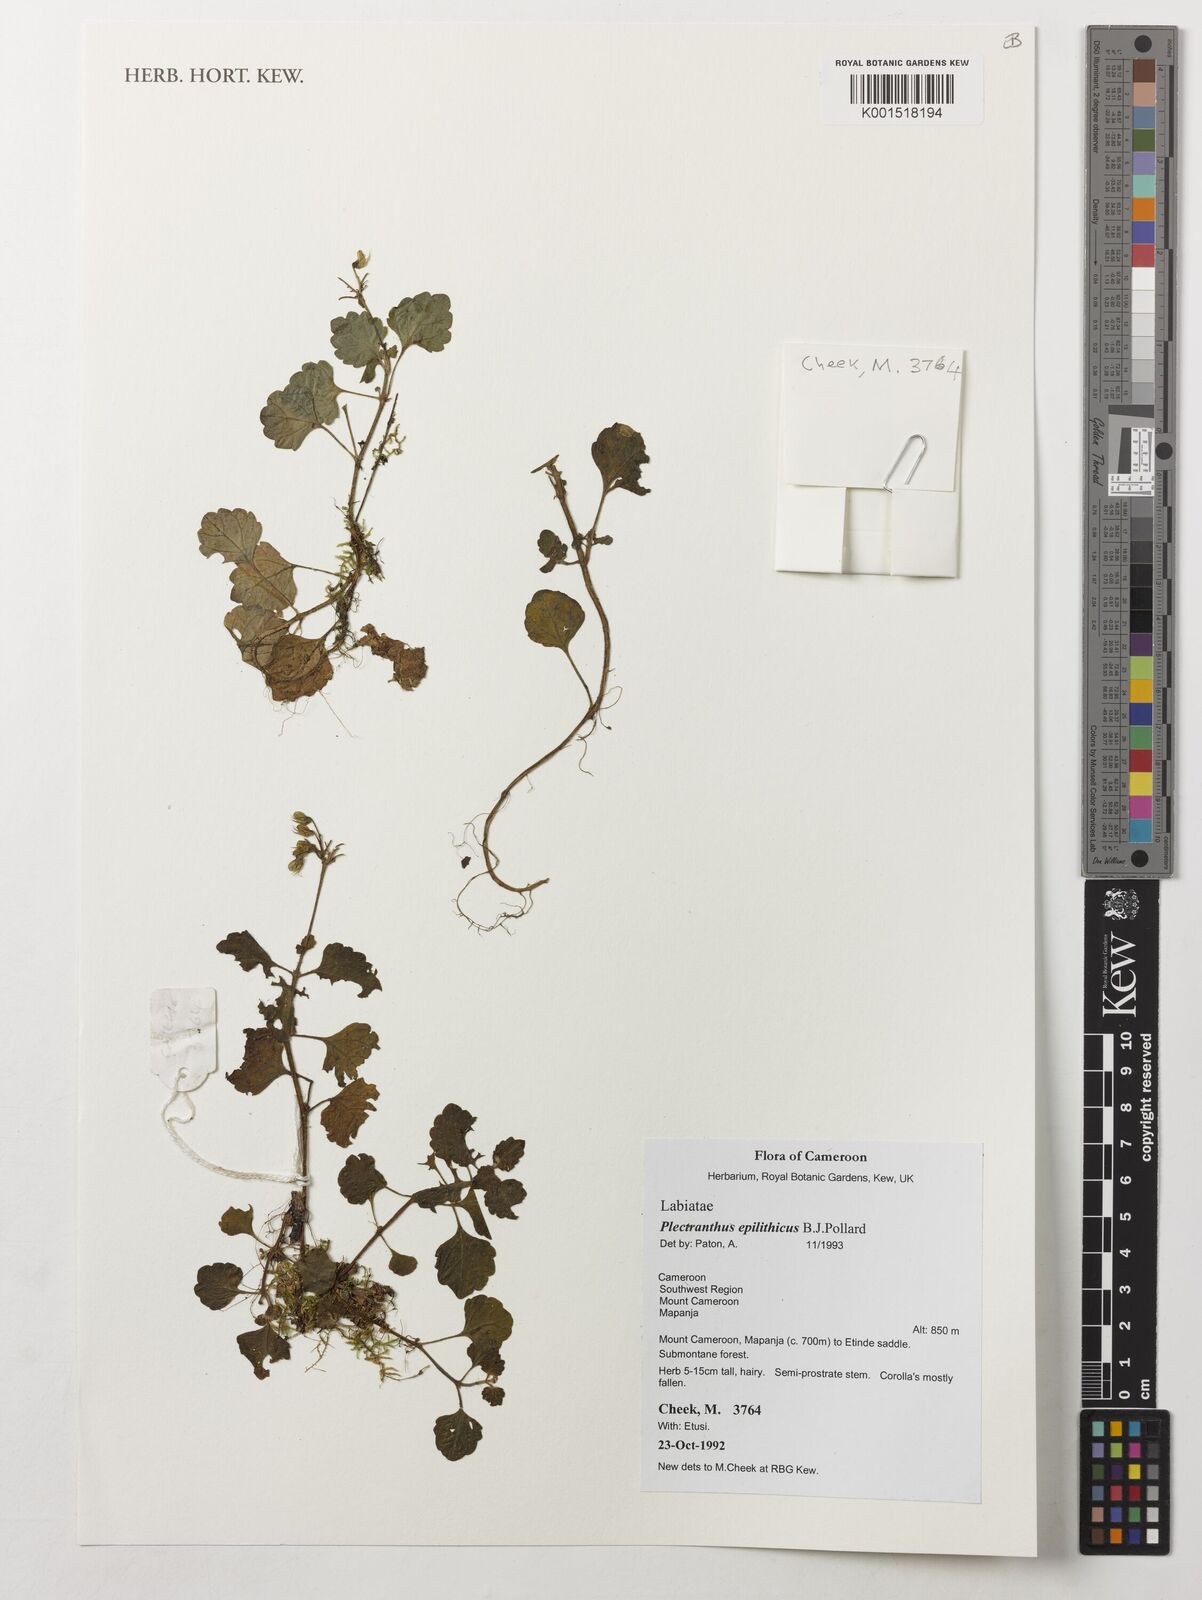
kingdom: Plantae
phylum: Tracheophyta
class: Magnoliopsida
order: Lamiales
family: Lamiaceae
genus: Coleus
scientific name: Coleus repens
